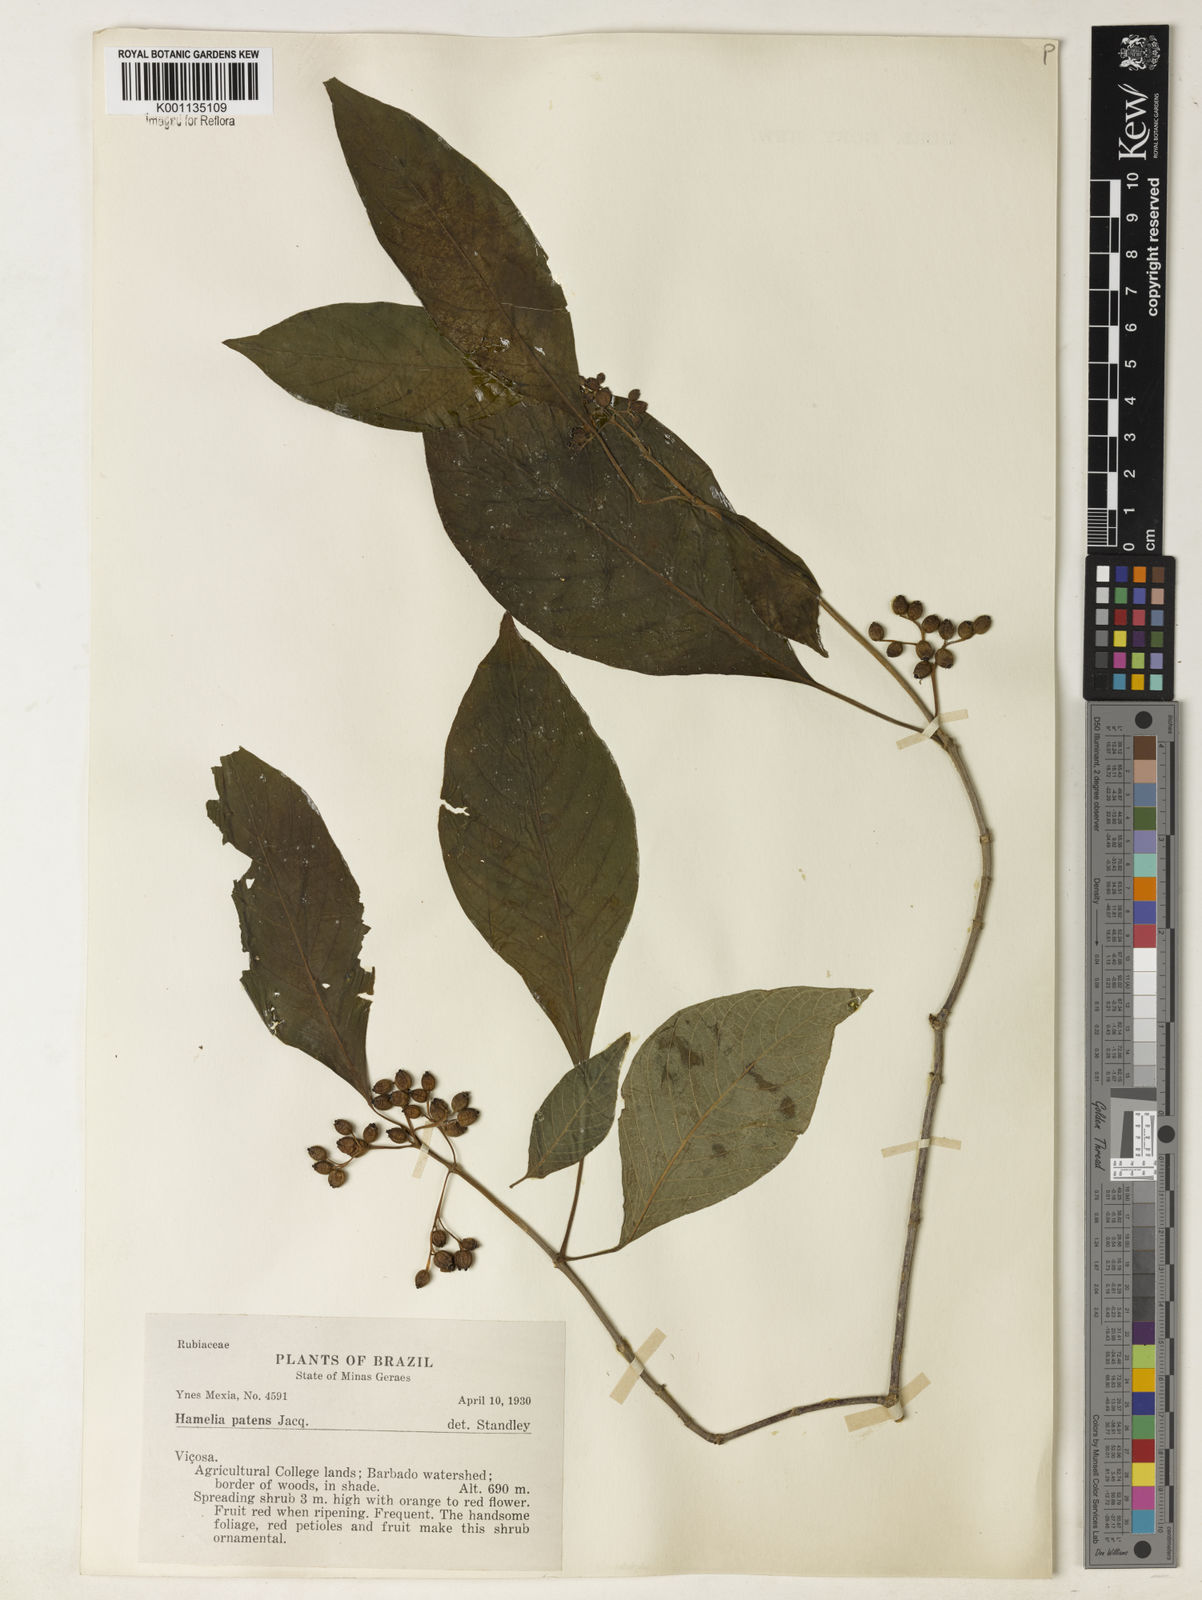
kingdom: Plantae
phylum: Tracheophyta
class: Magnoliopsida
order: Gentianales
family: Rubiaceae
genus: Hamelia
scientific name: Hamelia patens
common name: Redhead
